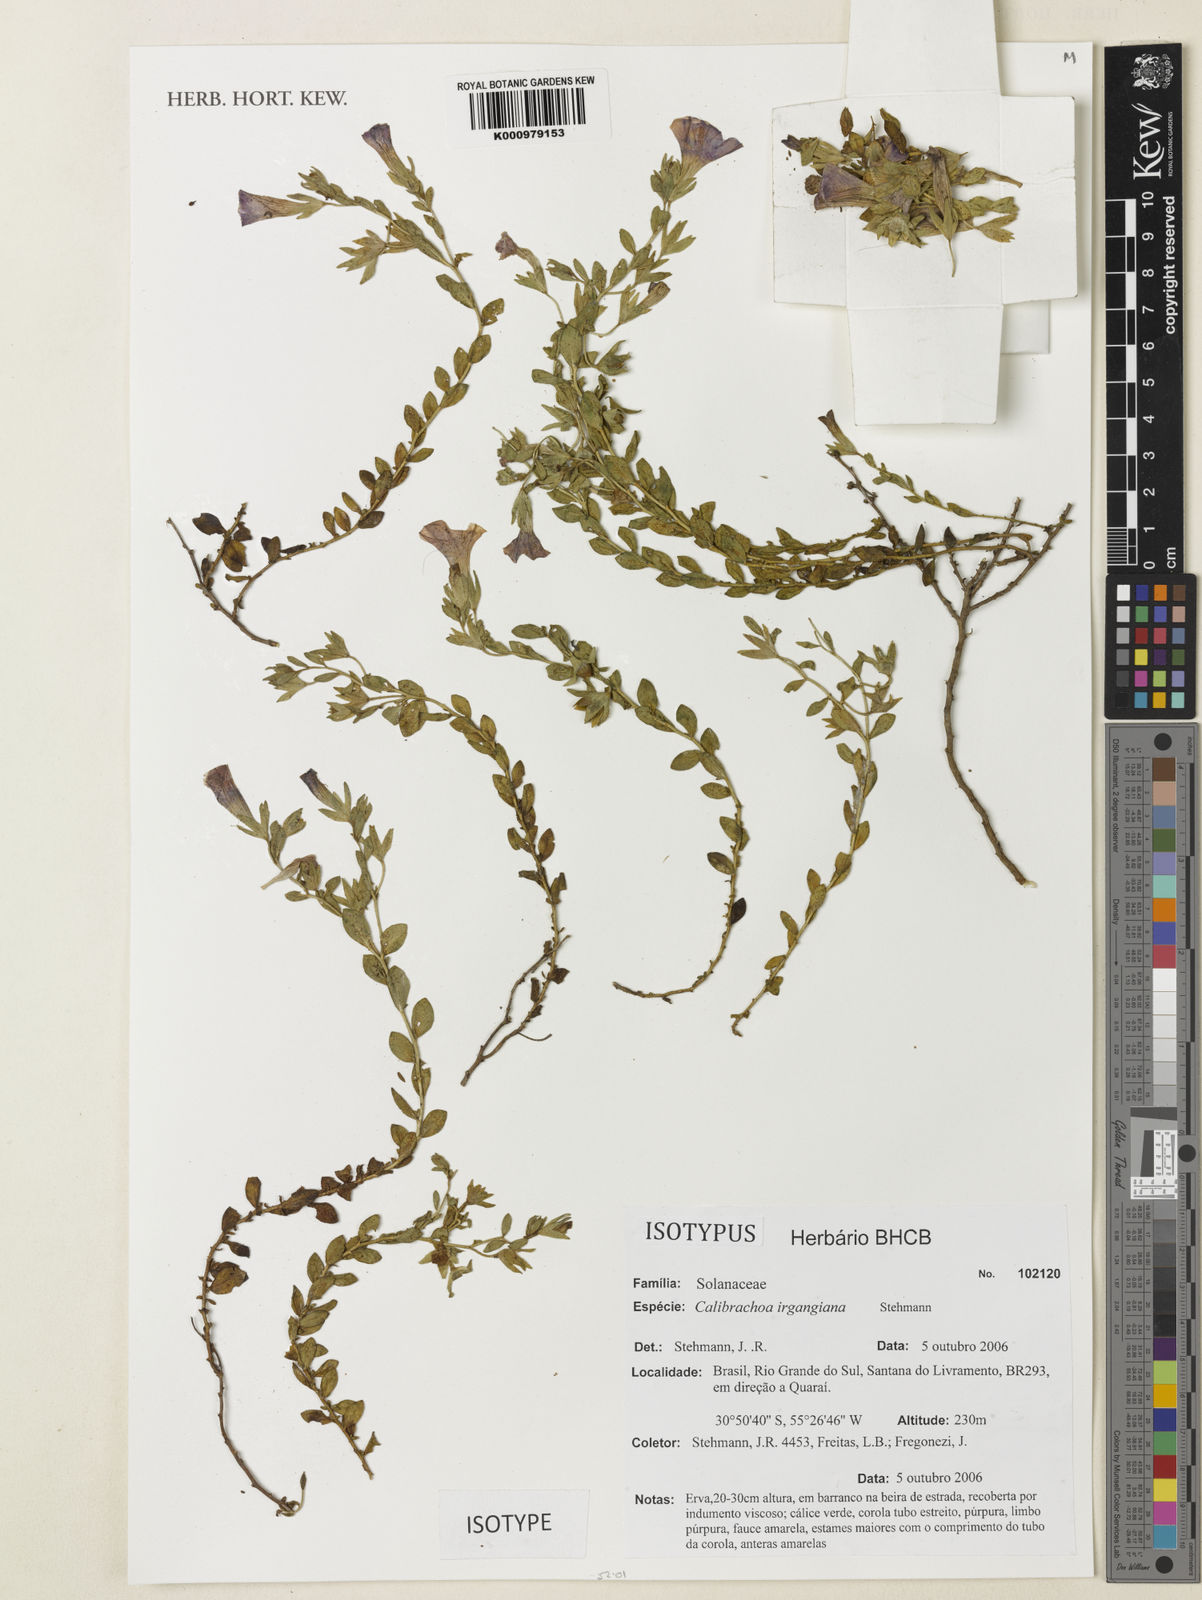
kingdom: Plantae
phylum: Tracheophyta
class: Magnoliopsida
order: Solanales
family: Solanaceae
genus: Calibrachoa
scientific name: Calibrachoa irgangiana
